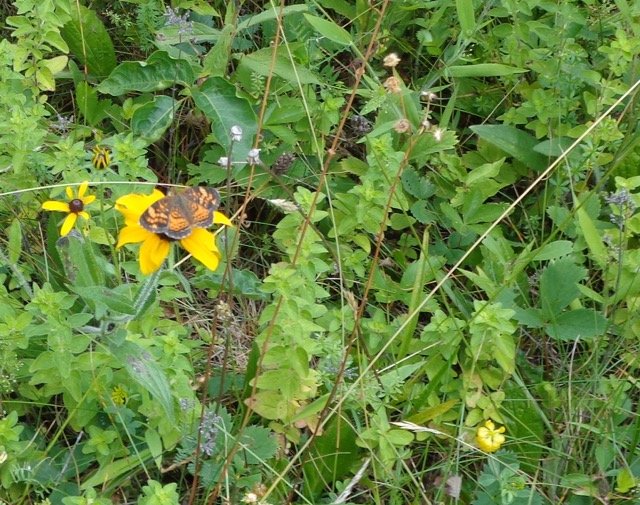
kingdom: Animalia
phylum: Arthropoda
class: Insecta
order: Lepidoptera
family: Nymphalidae
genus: Phyciodes
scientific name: Phyciodes tharos
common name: Pearl Crescent
